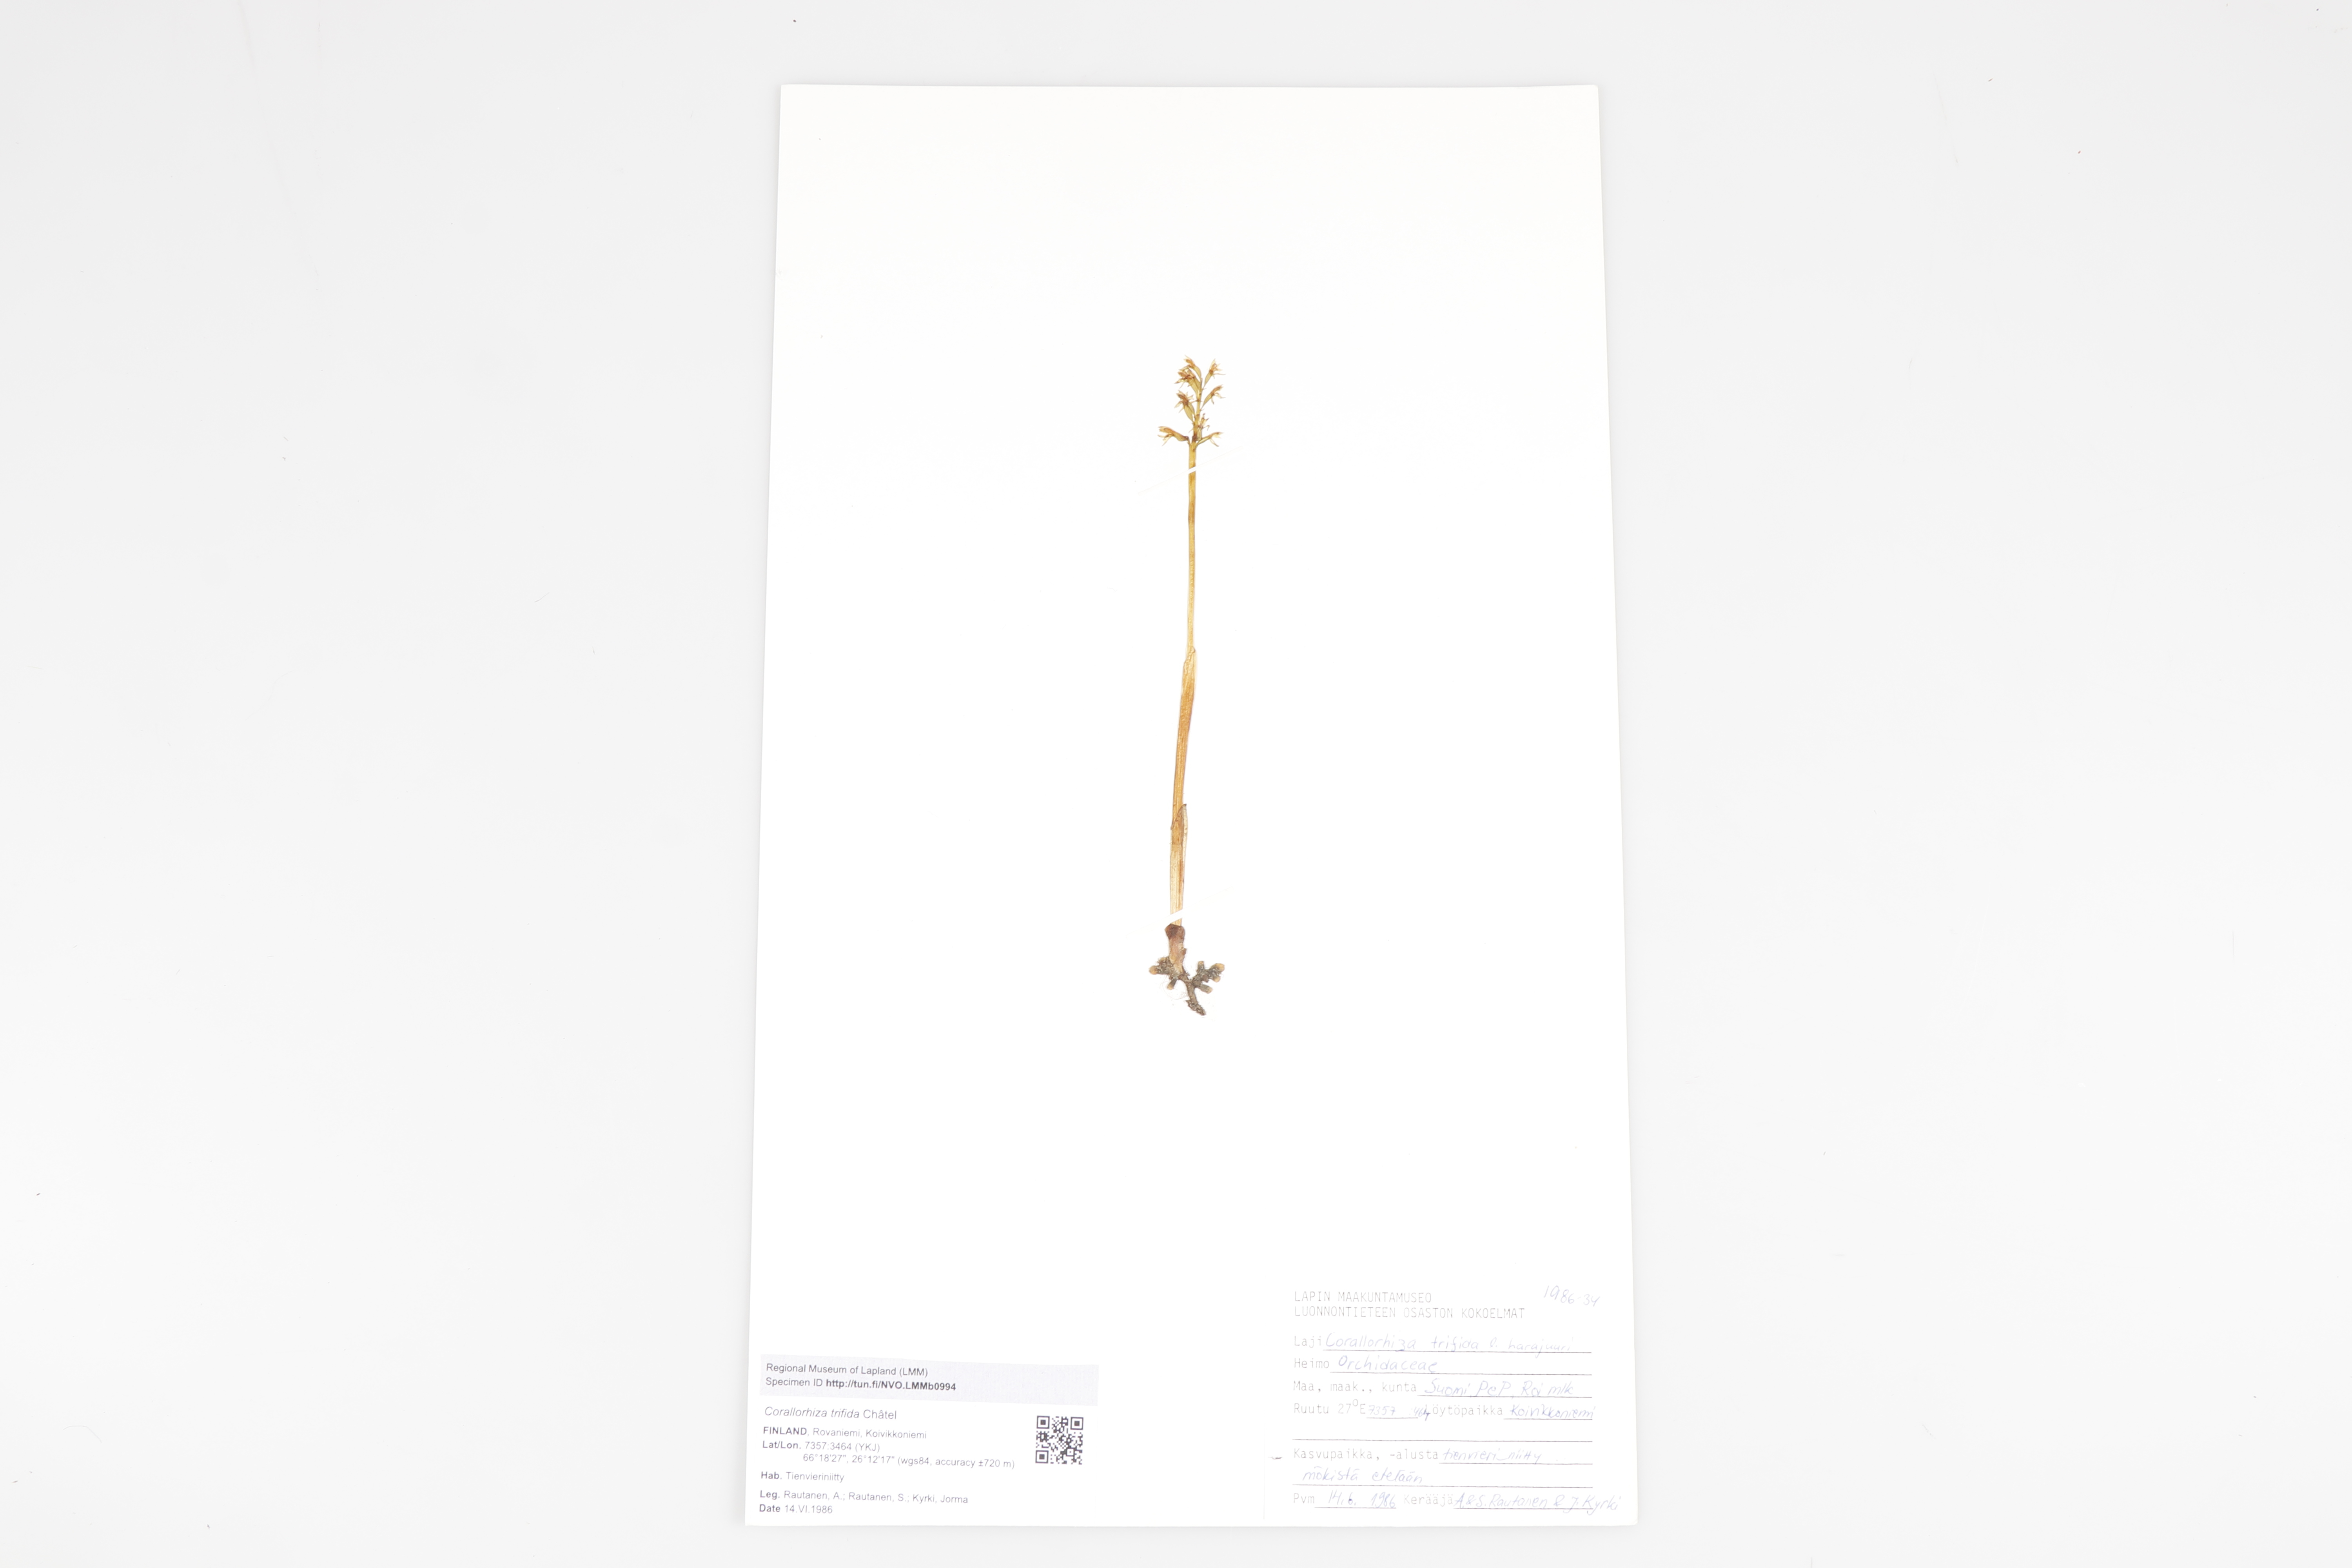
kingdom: Plantae
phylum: Tracheophyta
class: Liliopsida
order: Asparagales
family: Orchidaceae
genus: Corallorhiza
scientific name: Corallorhiza trifida
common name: Yellow coralroot
